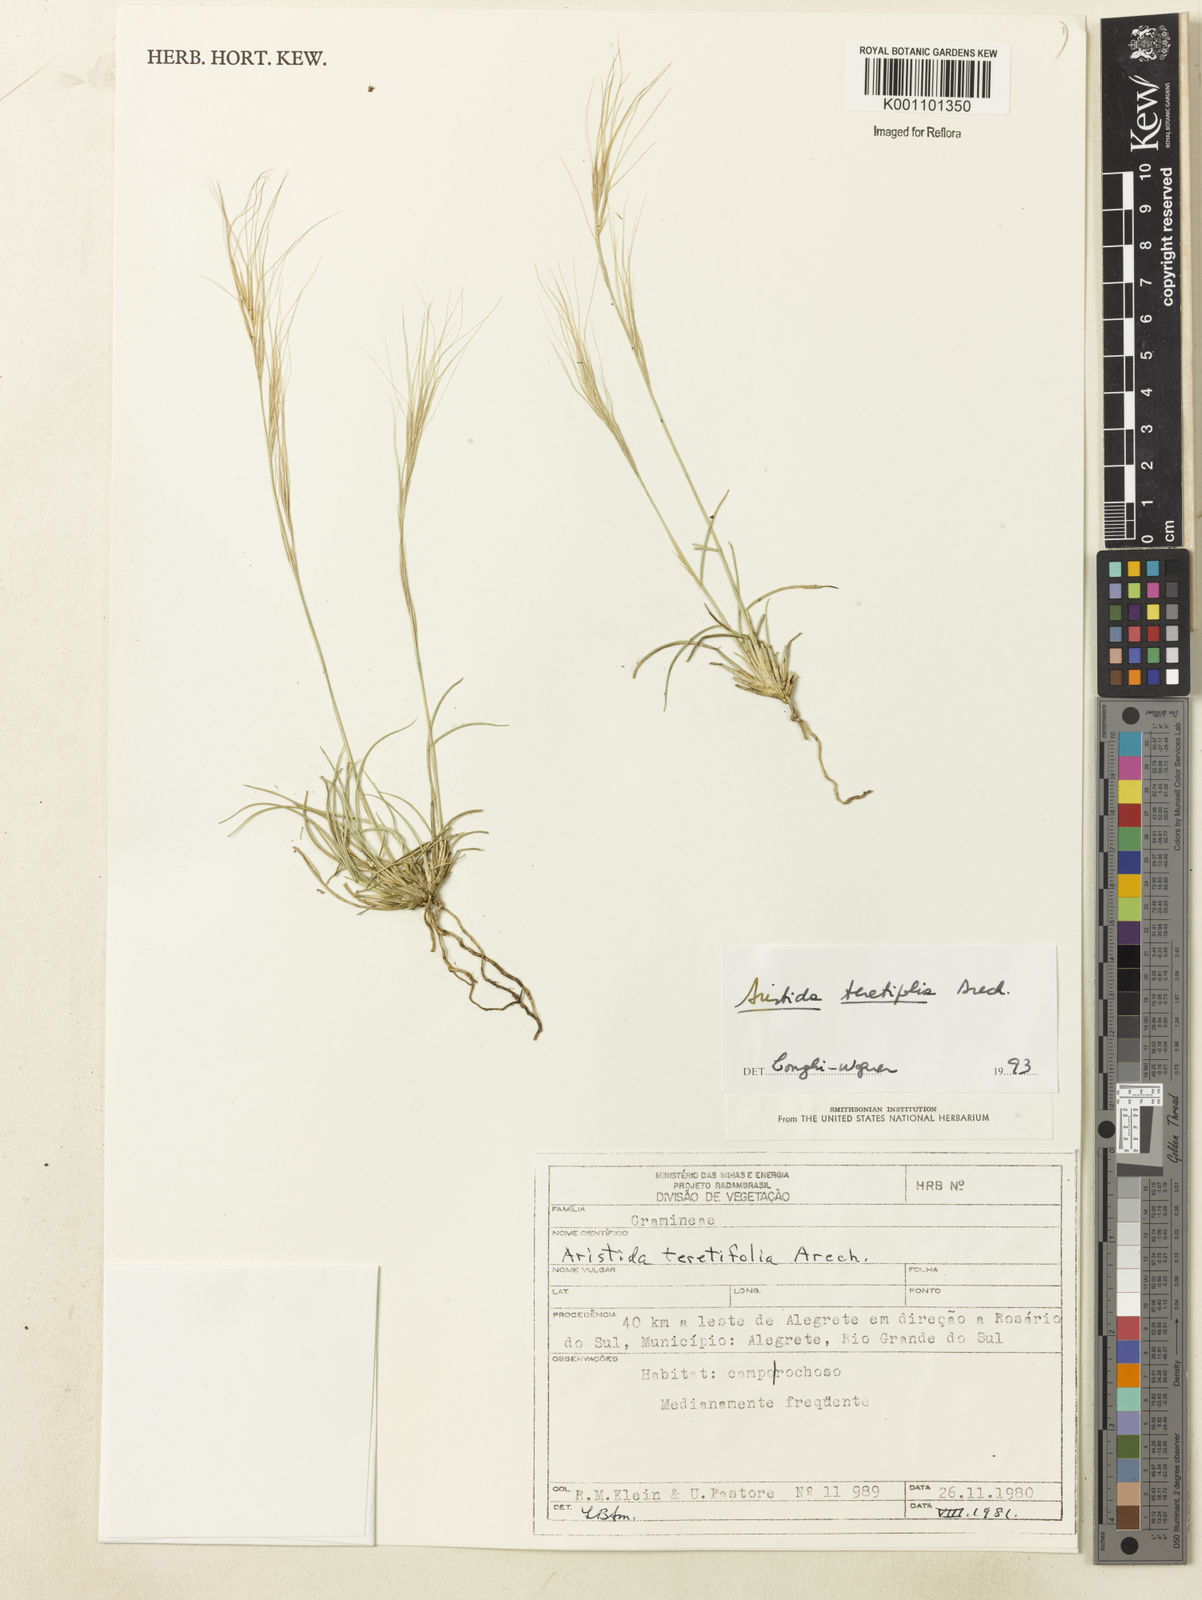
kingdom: Plantae
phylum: Tracheophyta
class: Liliopsida
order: Poales
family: Poaceae
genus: Aristida
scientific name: Aristida teretifolia
